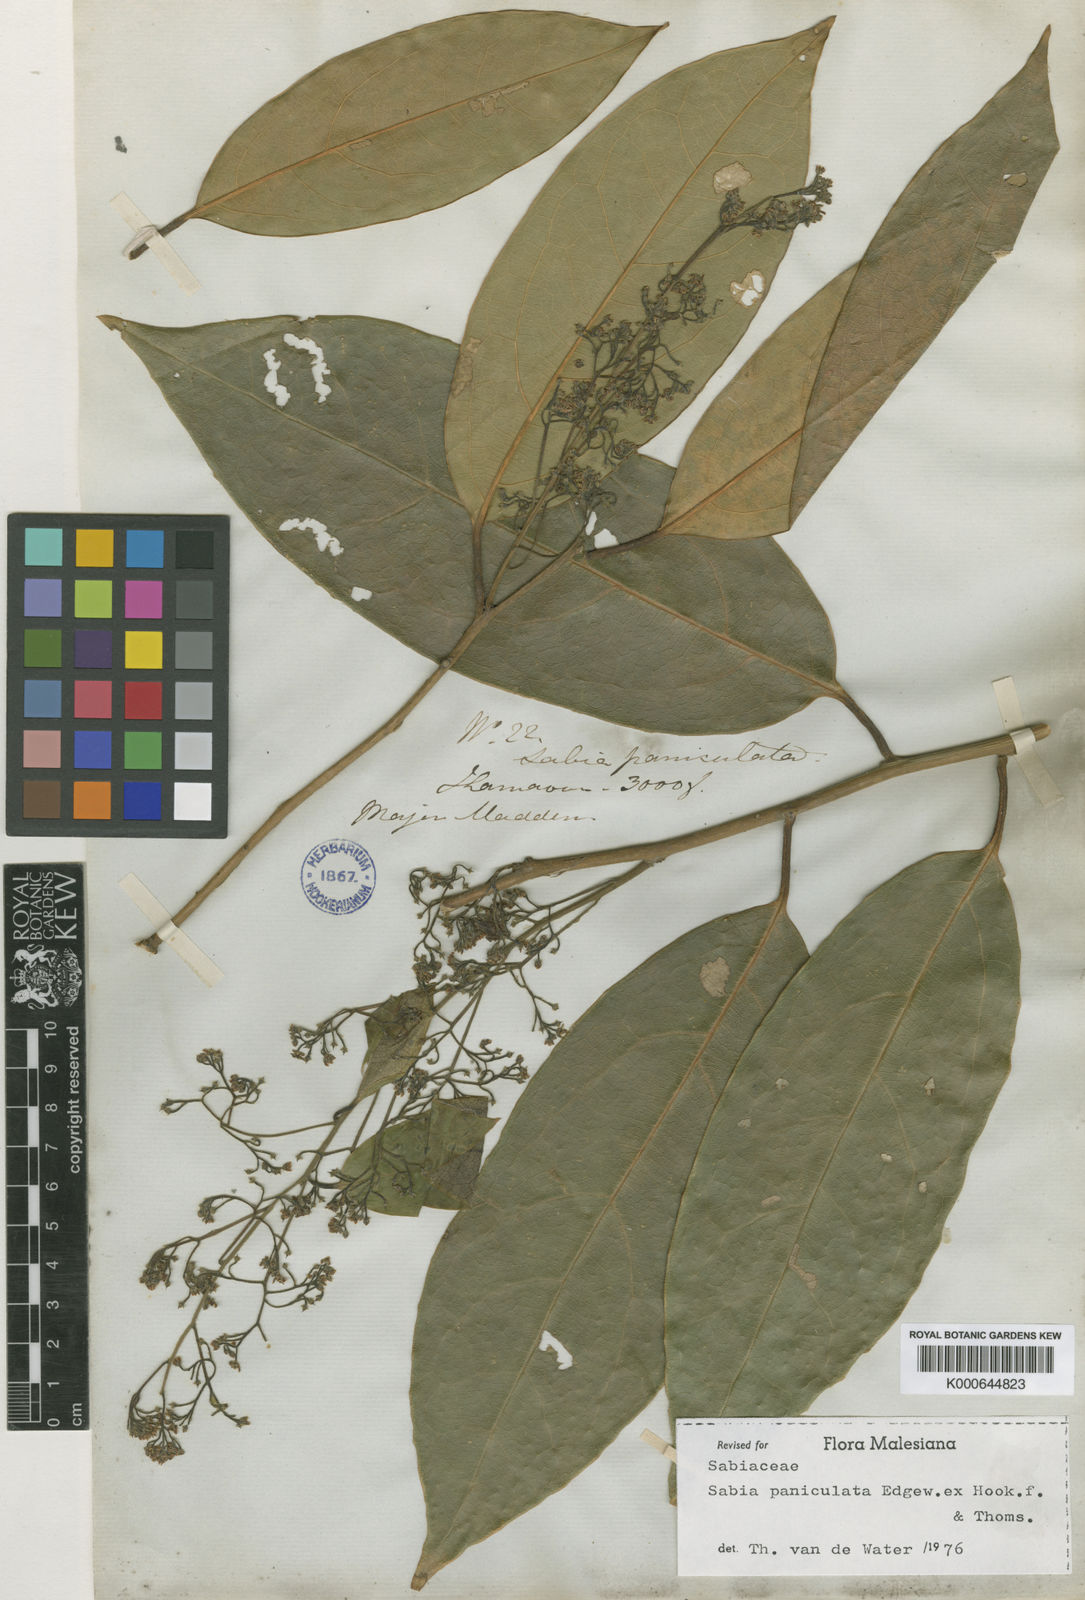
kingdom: Plantae
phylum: Tracheophyta
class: Magnoliopsida
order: Proteales
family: Sabiaceae
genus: Sabia
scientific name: Sabia paniculata
